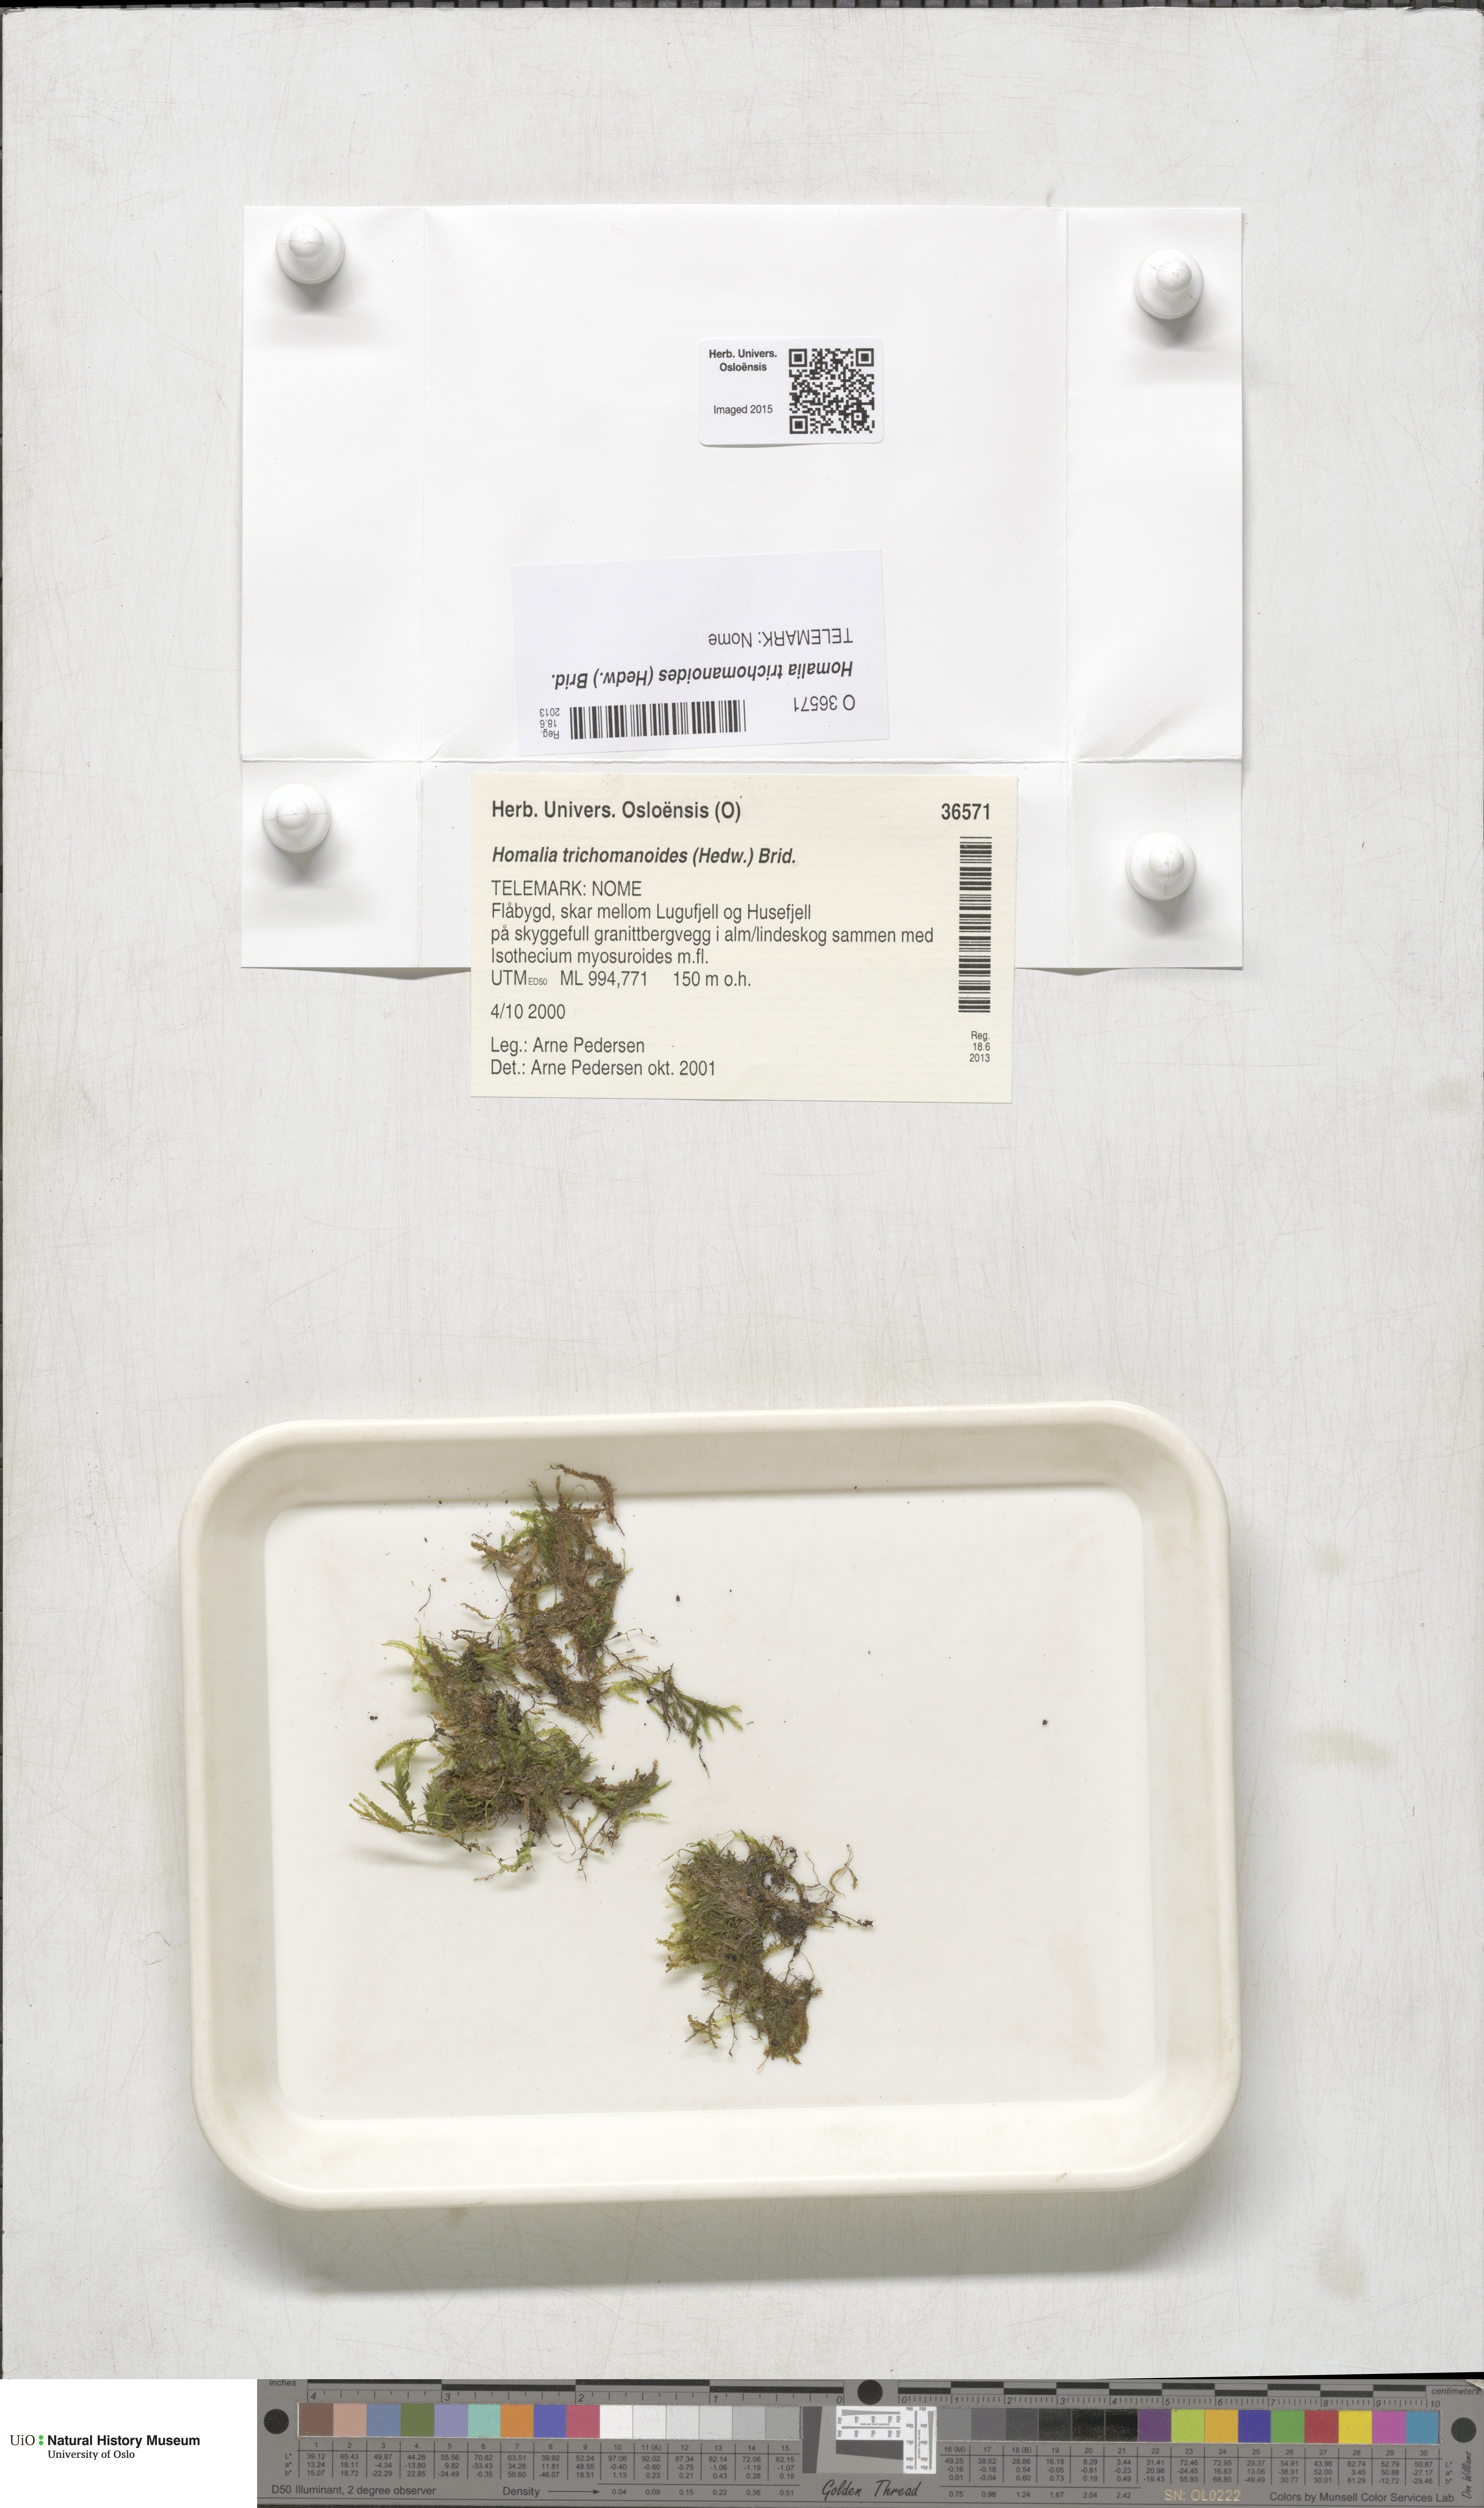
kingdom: Plantae
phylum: Bryophyta
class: Bryopsida
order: Hypnales
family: Neckeraceae
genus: Homalia
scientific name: Homalia trichomanoides
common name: Lime homalia moss
